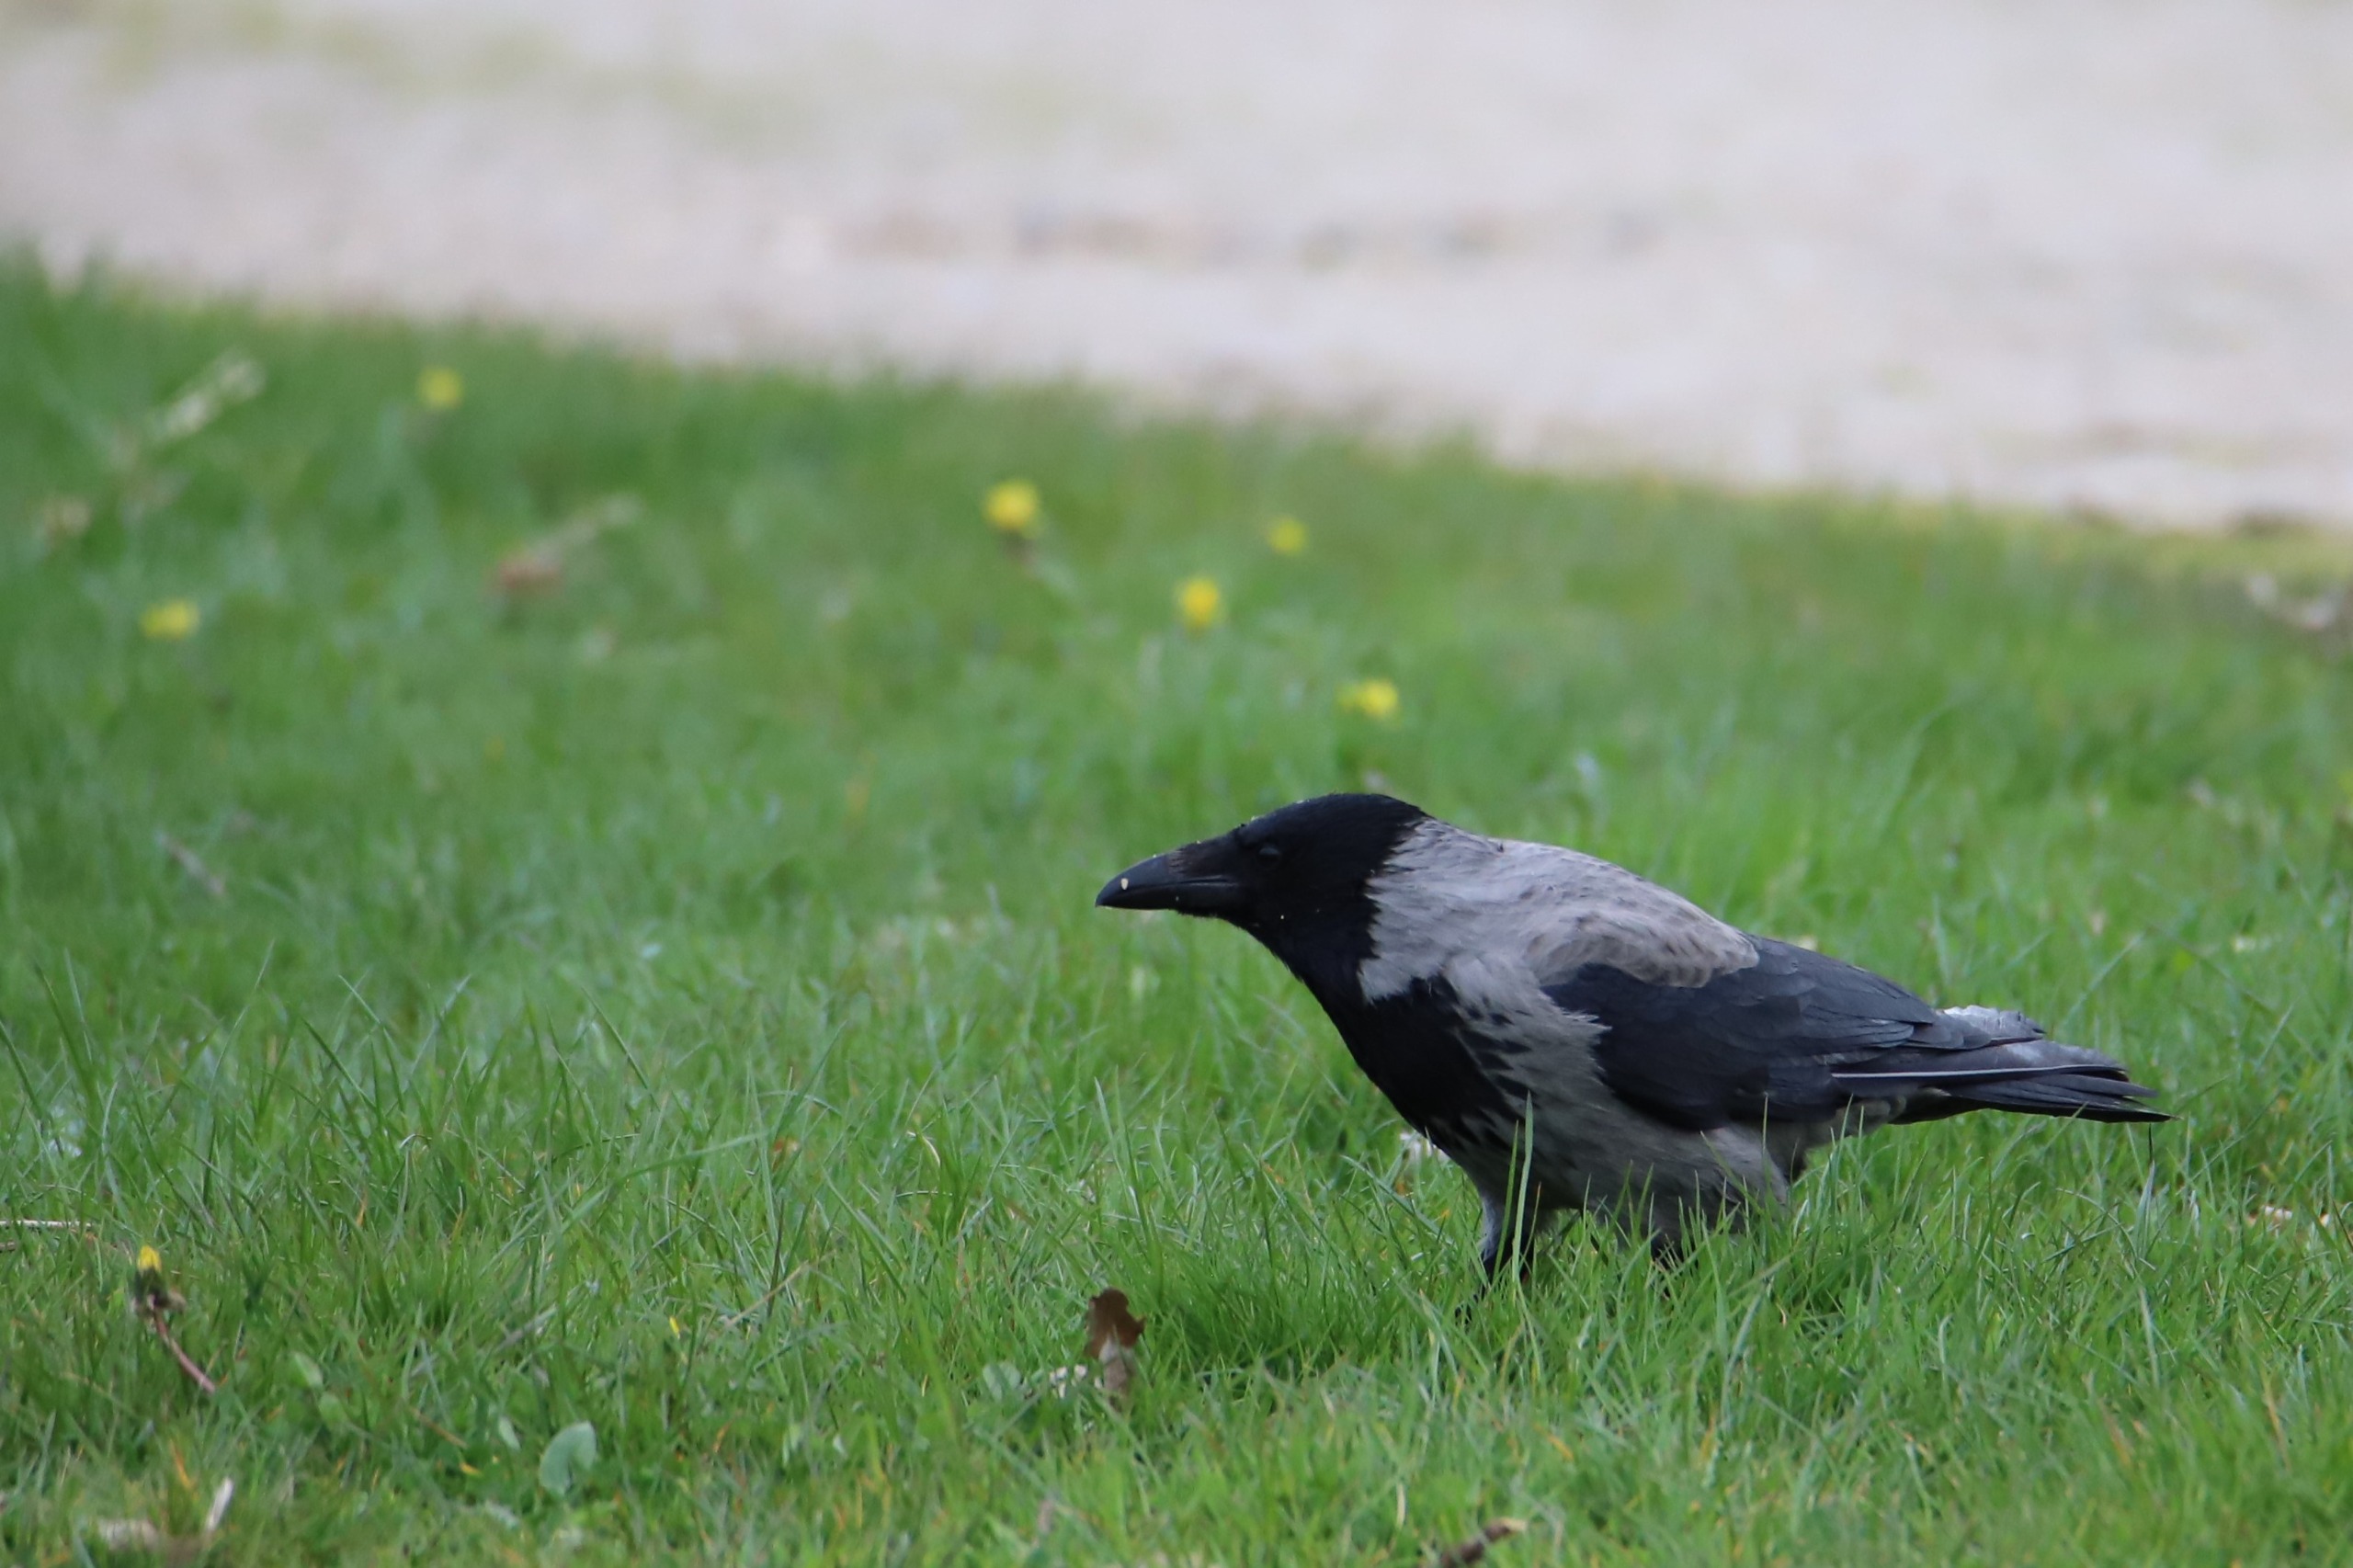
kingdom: Animalia
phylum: Chordata
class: Aves
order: Passeriformes
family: Corvidae
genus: Corvus
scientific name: Corvus cornix
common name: Gråkrage
